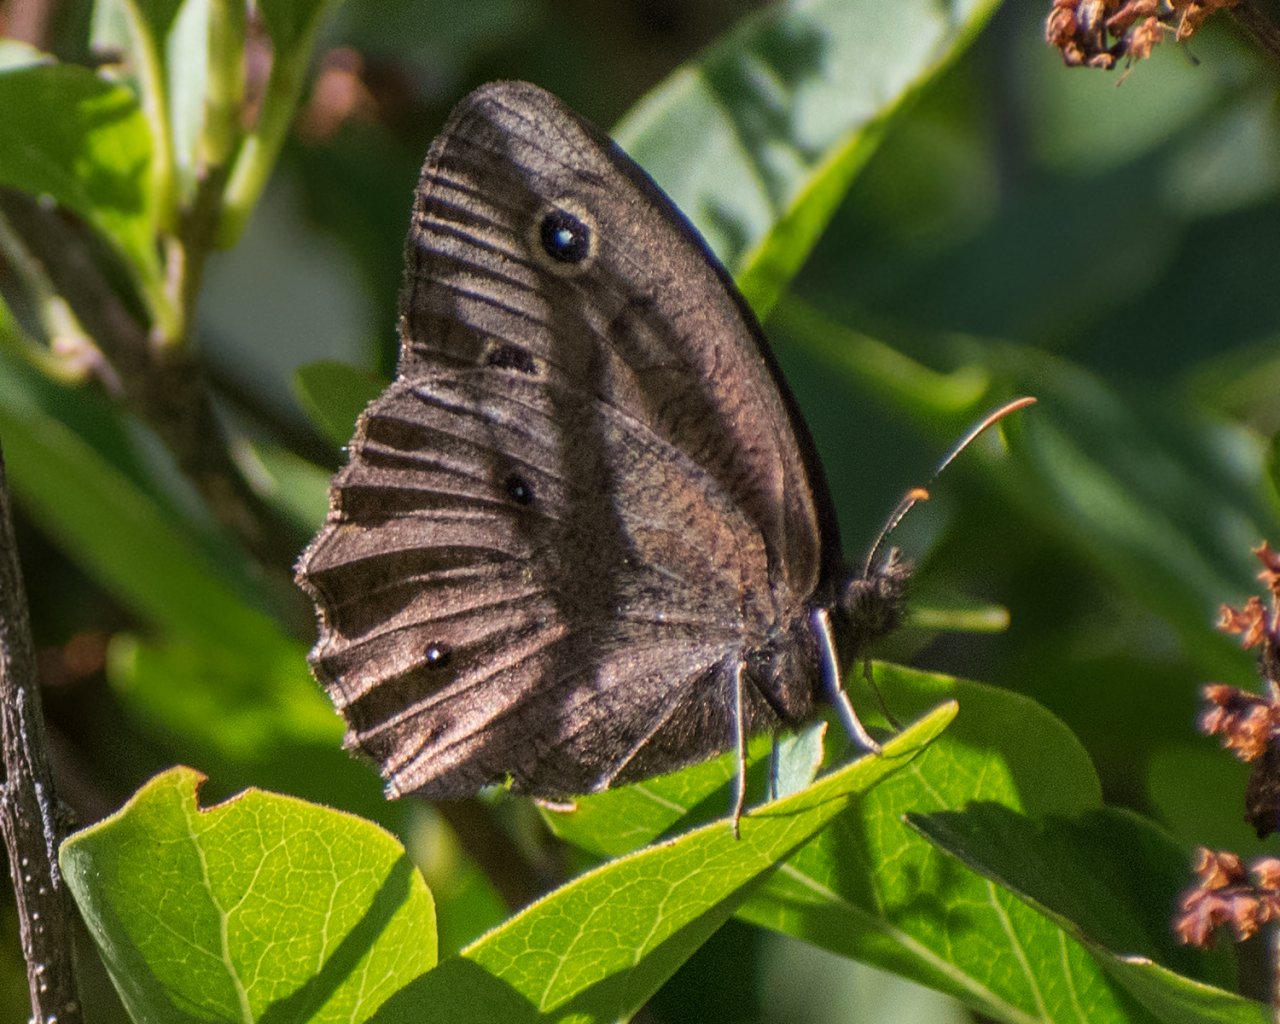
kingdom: Animalia
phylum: Arthropoda
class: Insecta
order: Lepidoptera
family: Nymphalidae
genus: Cercyonis
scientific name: Cercyonis pegala
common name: Common Wood-Nymph
